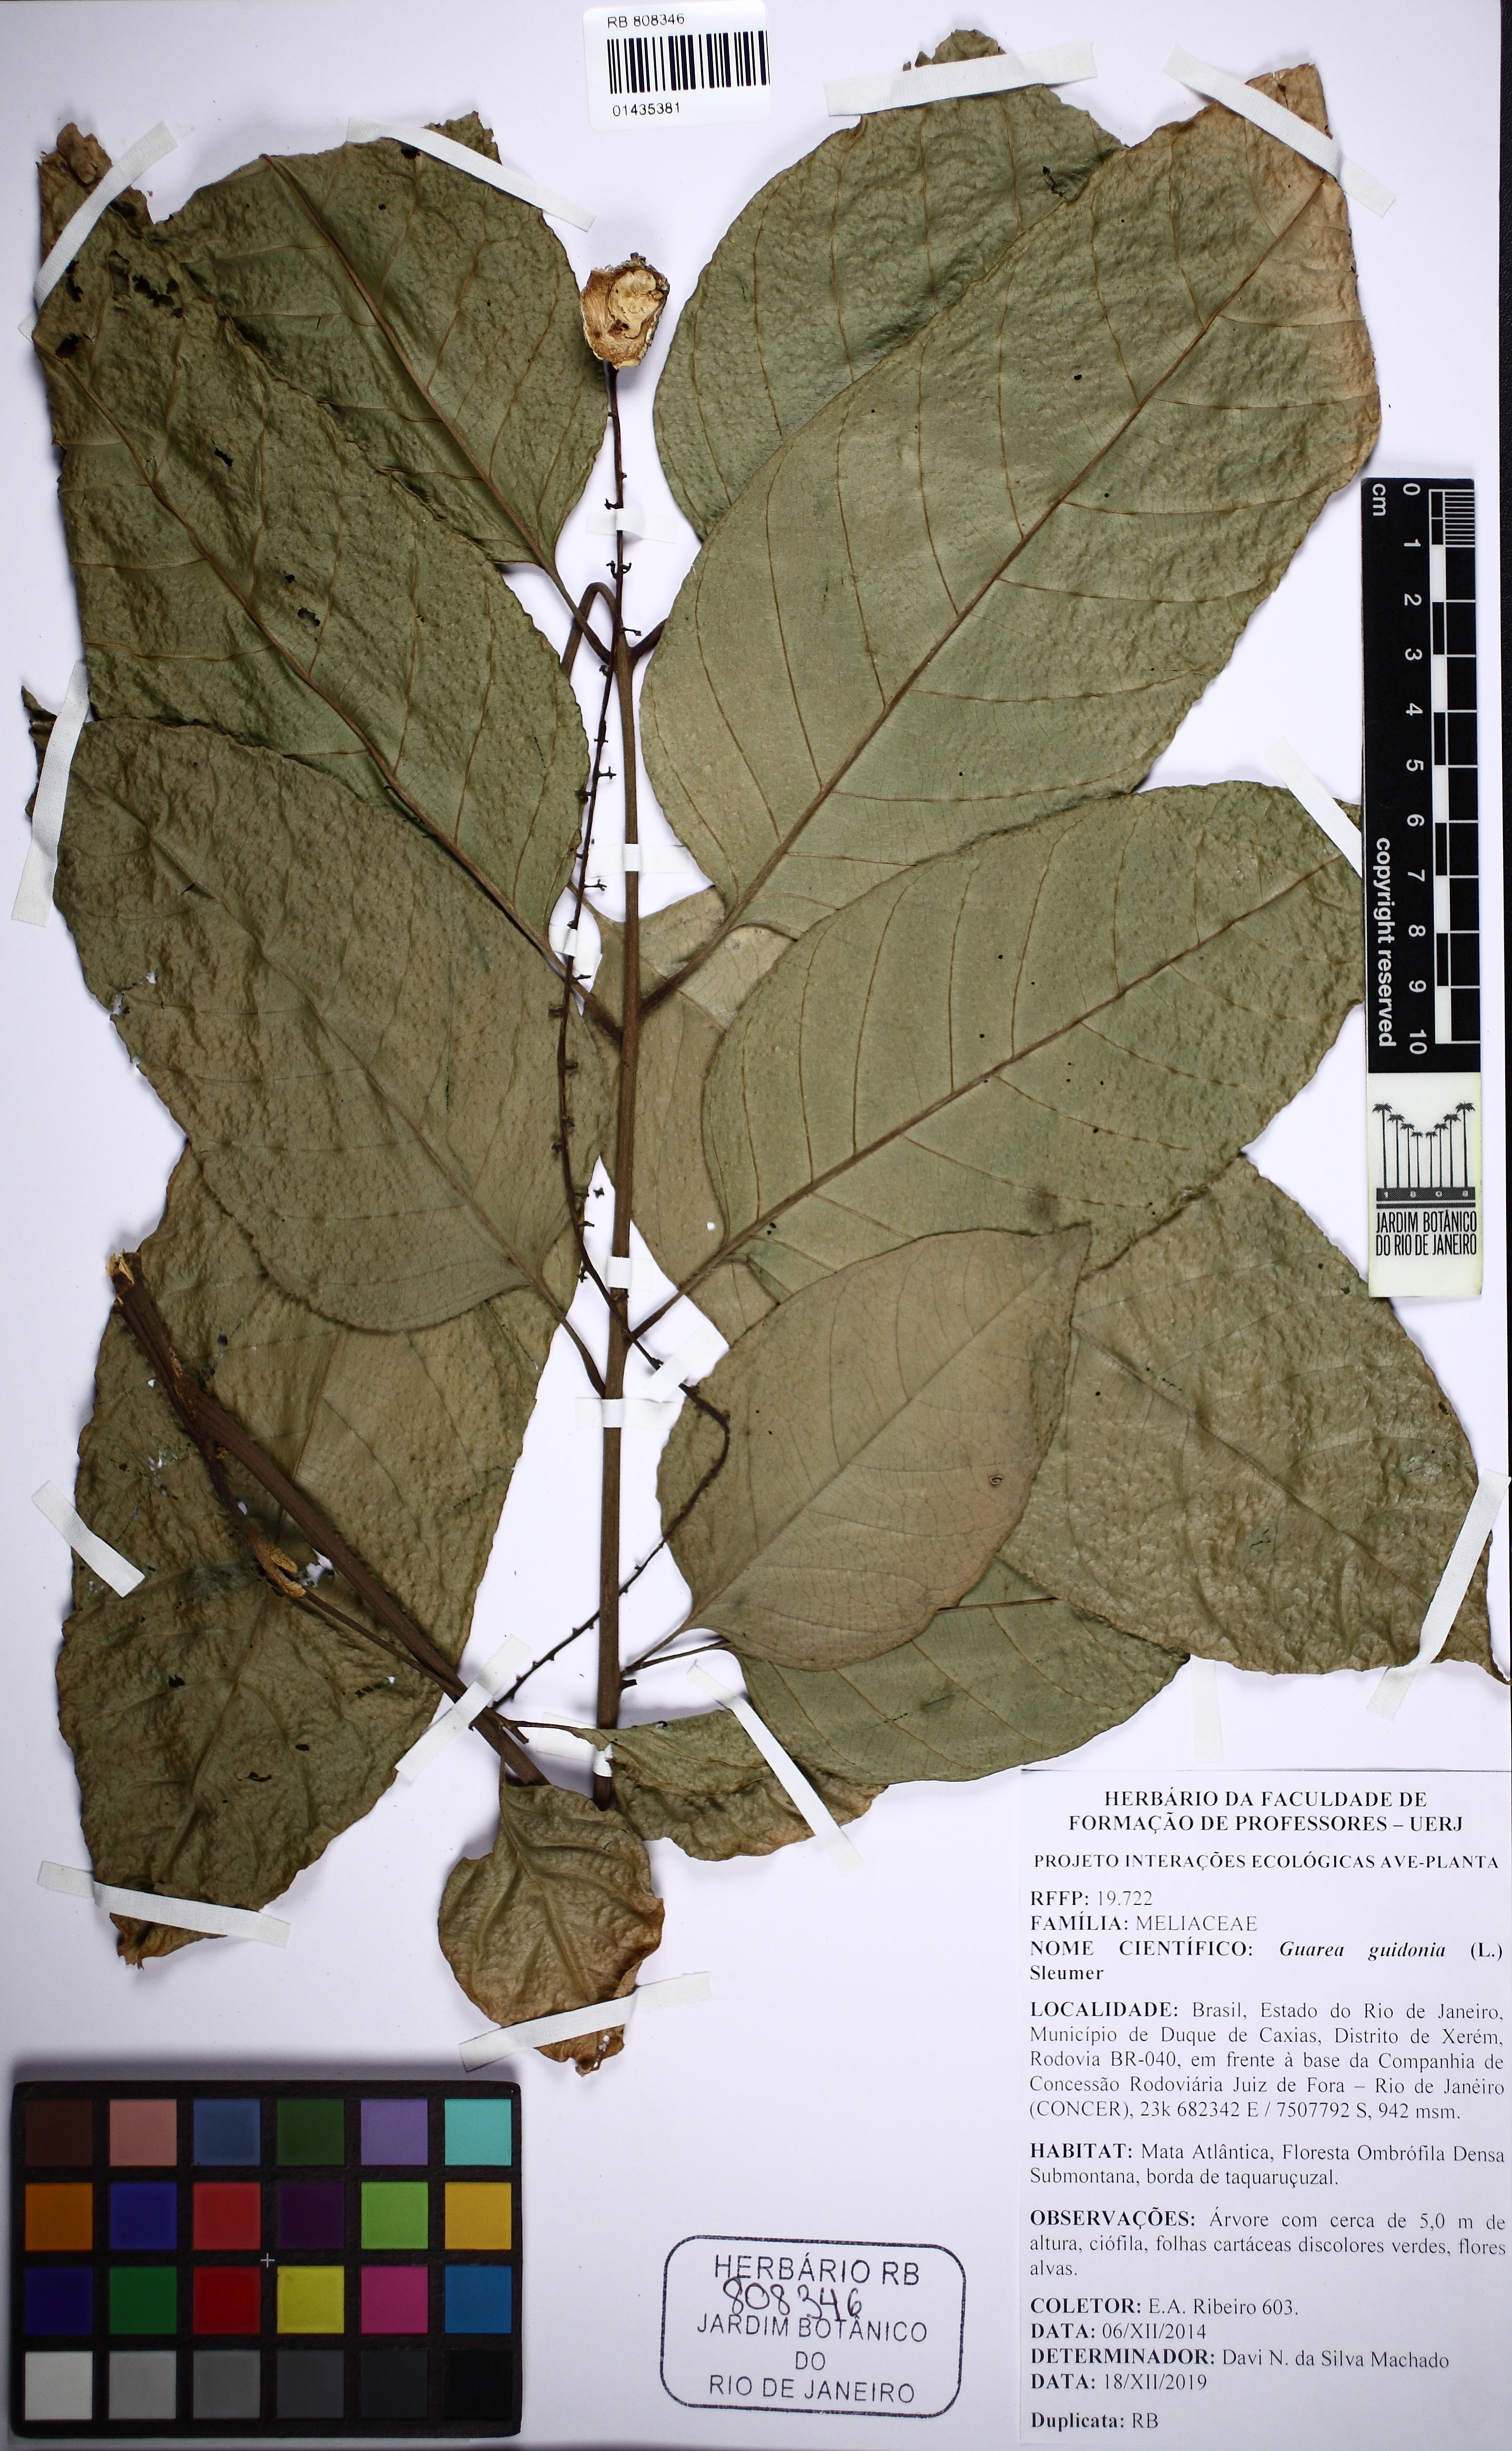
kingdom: Plantae
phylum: Tracheophyta
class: Magnoliopsida
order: Sapindales
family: Meliaceae
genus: Guarea
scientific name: Guarea guidonia
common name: American muskwood
